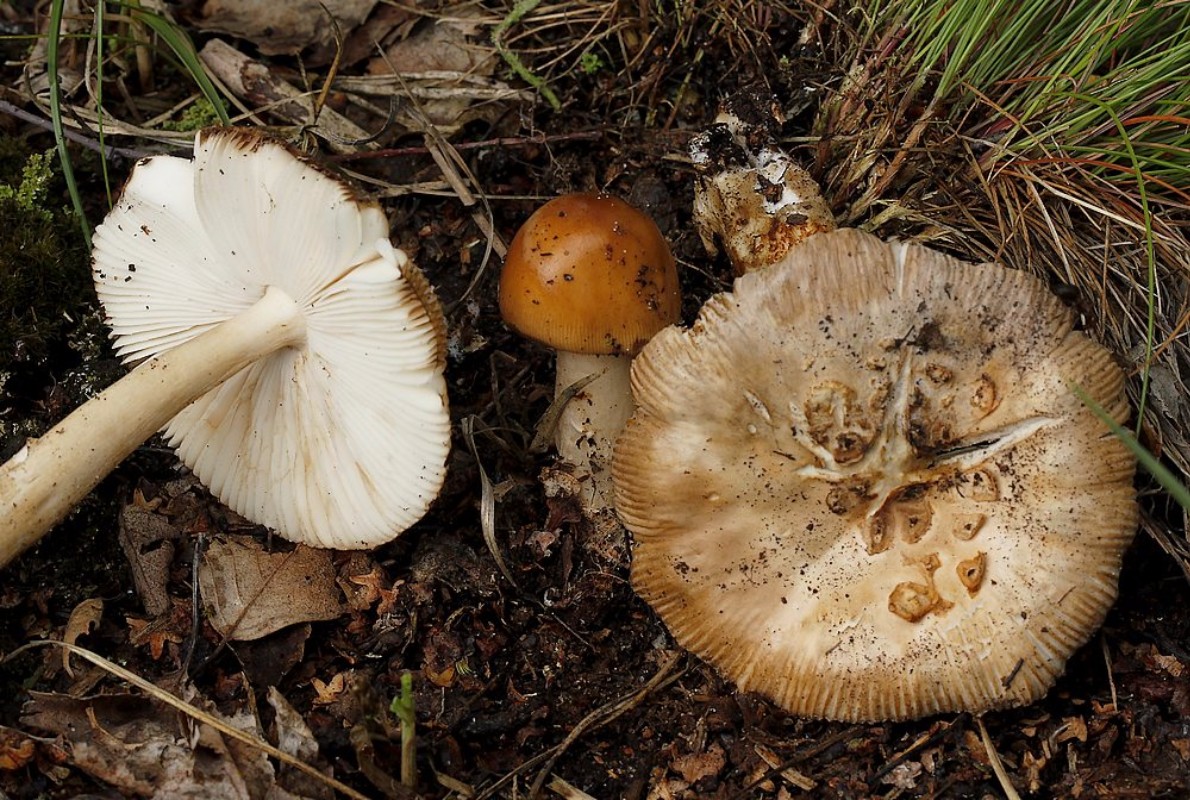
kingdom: Fungi
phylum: Basidiomycota
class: Agaricomycetes
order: Agaricales
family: Amanitaceae
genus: Amanita
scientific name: Amanita fulva
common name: brun kam-fluesvamp
